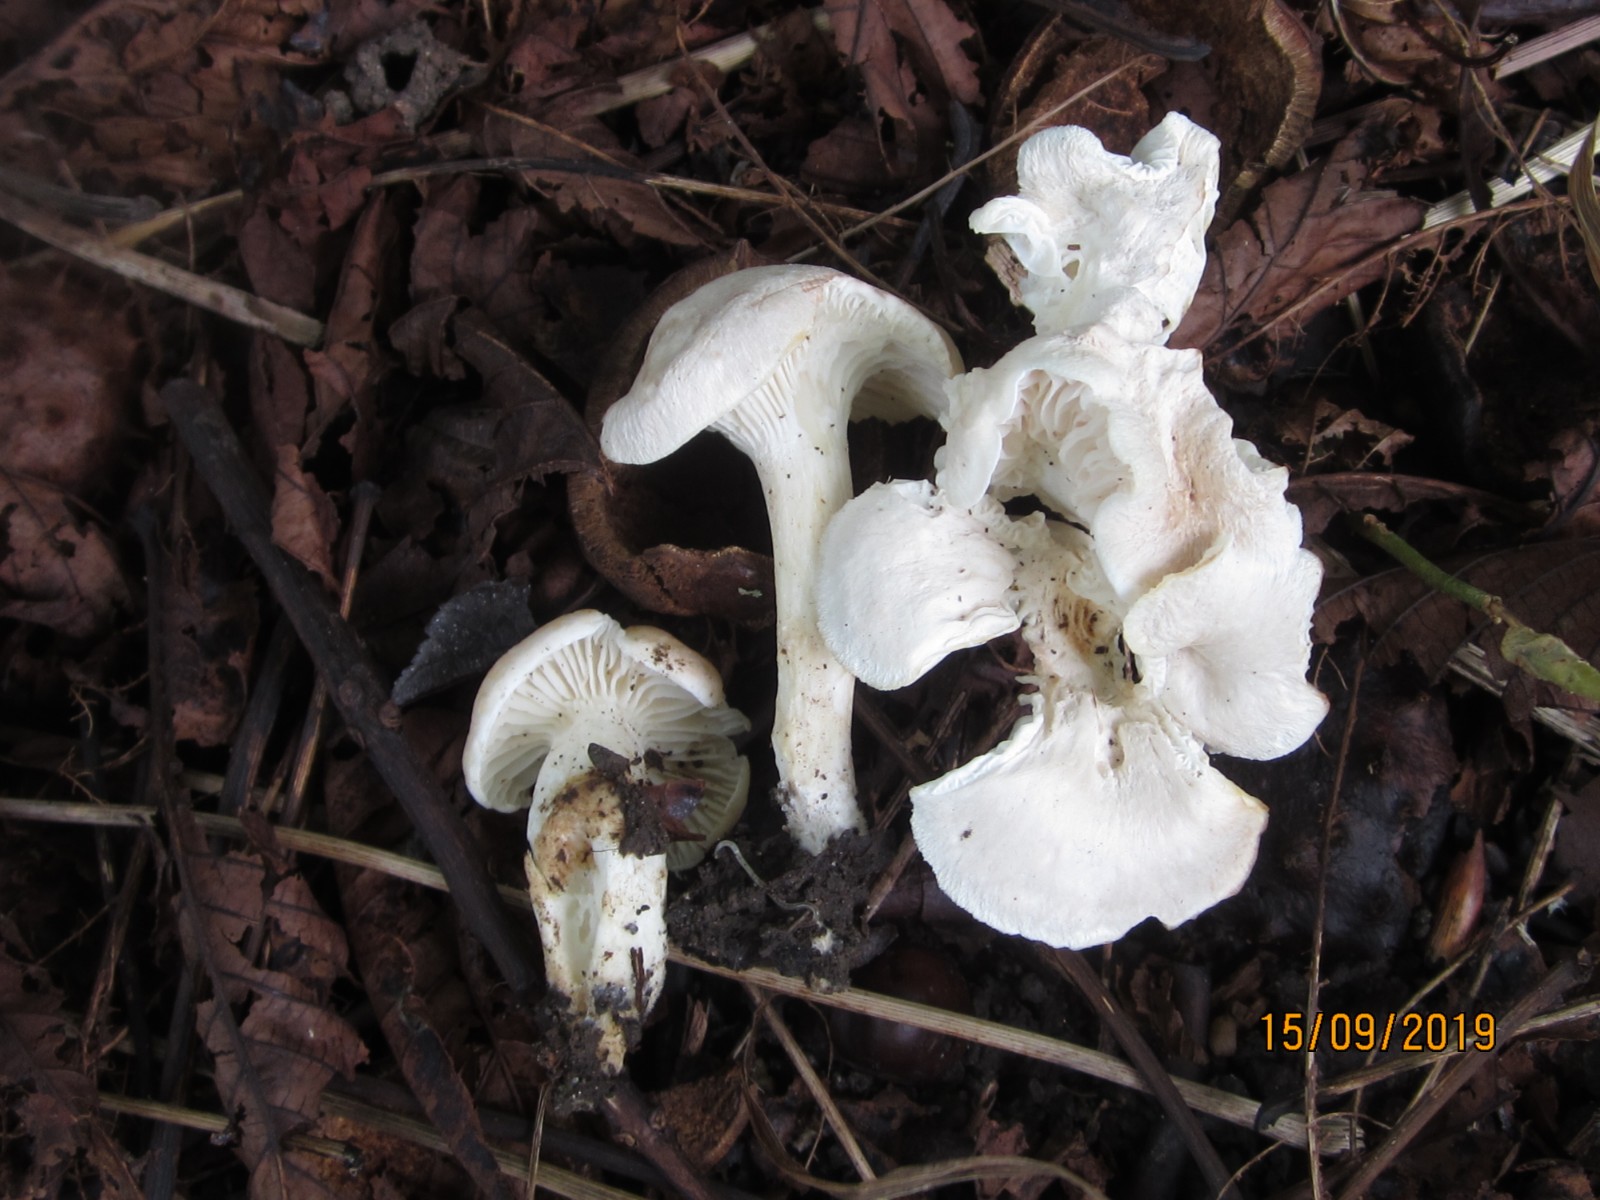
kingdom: Fungi
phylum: Basidiomycota
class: Agaricomycetes
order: Agaricales
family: Hygrophoraceae
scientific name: Hygrophoraceae
